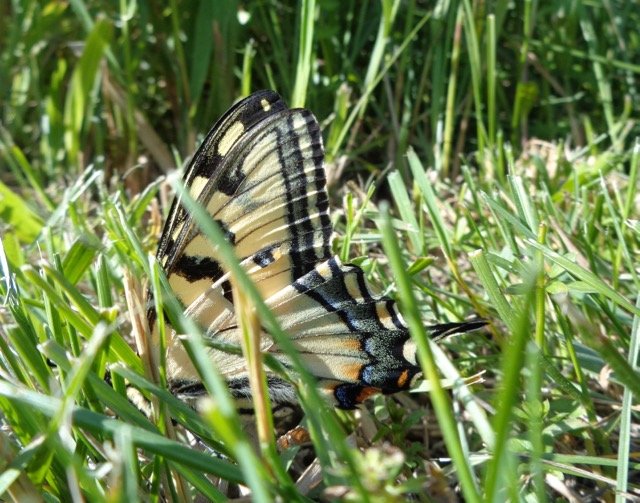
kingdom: Animalia
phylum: Arthropoda
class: Insecta
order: Lepidoptera
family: Papilionidae
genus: Pterourus
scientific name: Pterourus canadensis
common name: Canadian Tiger Swallowtail
